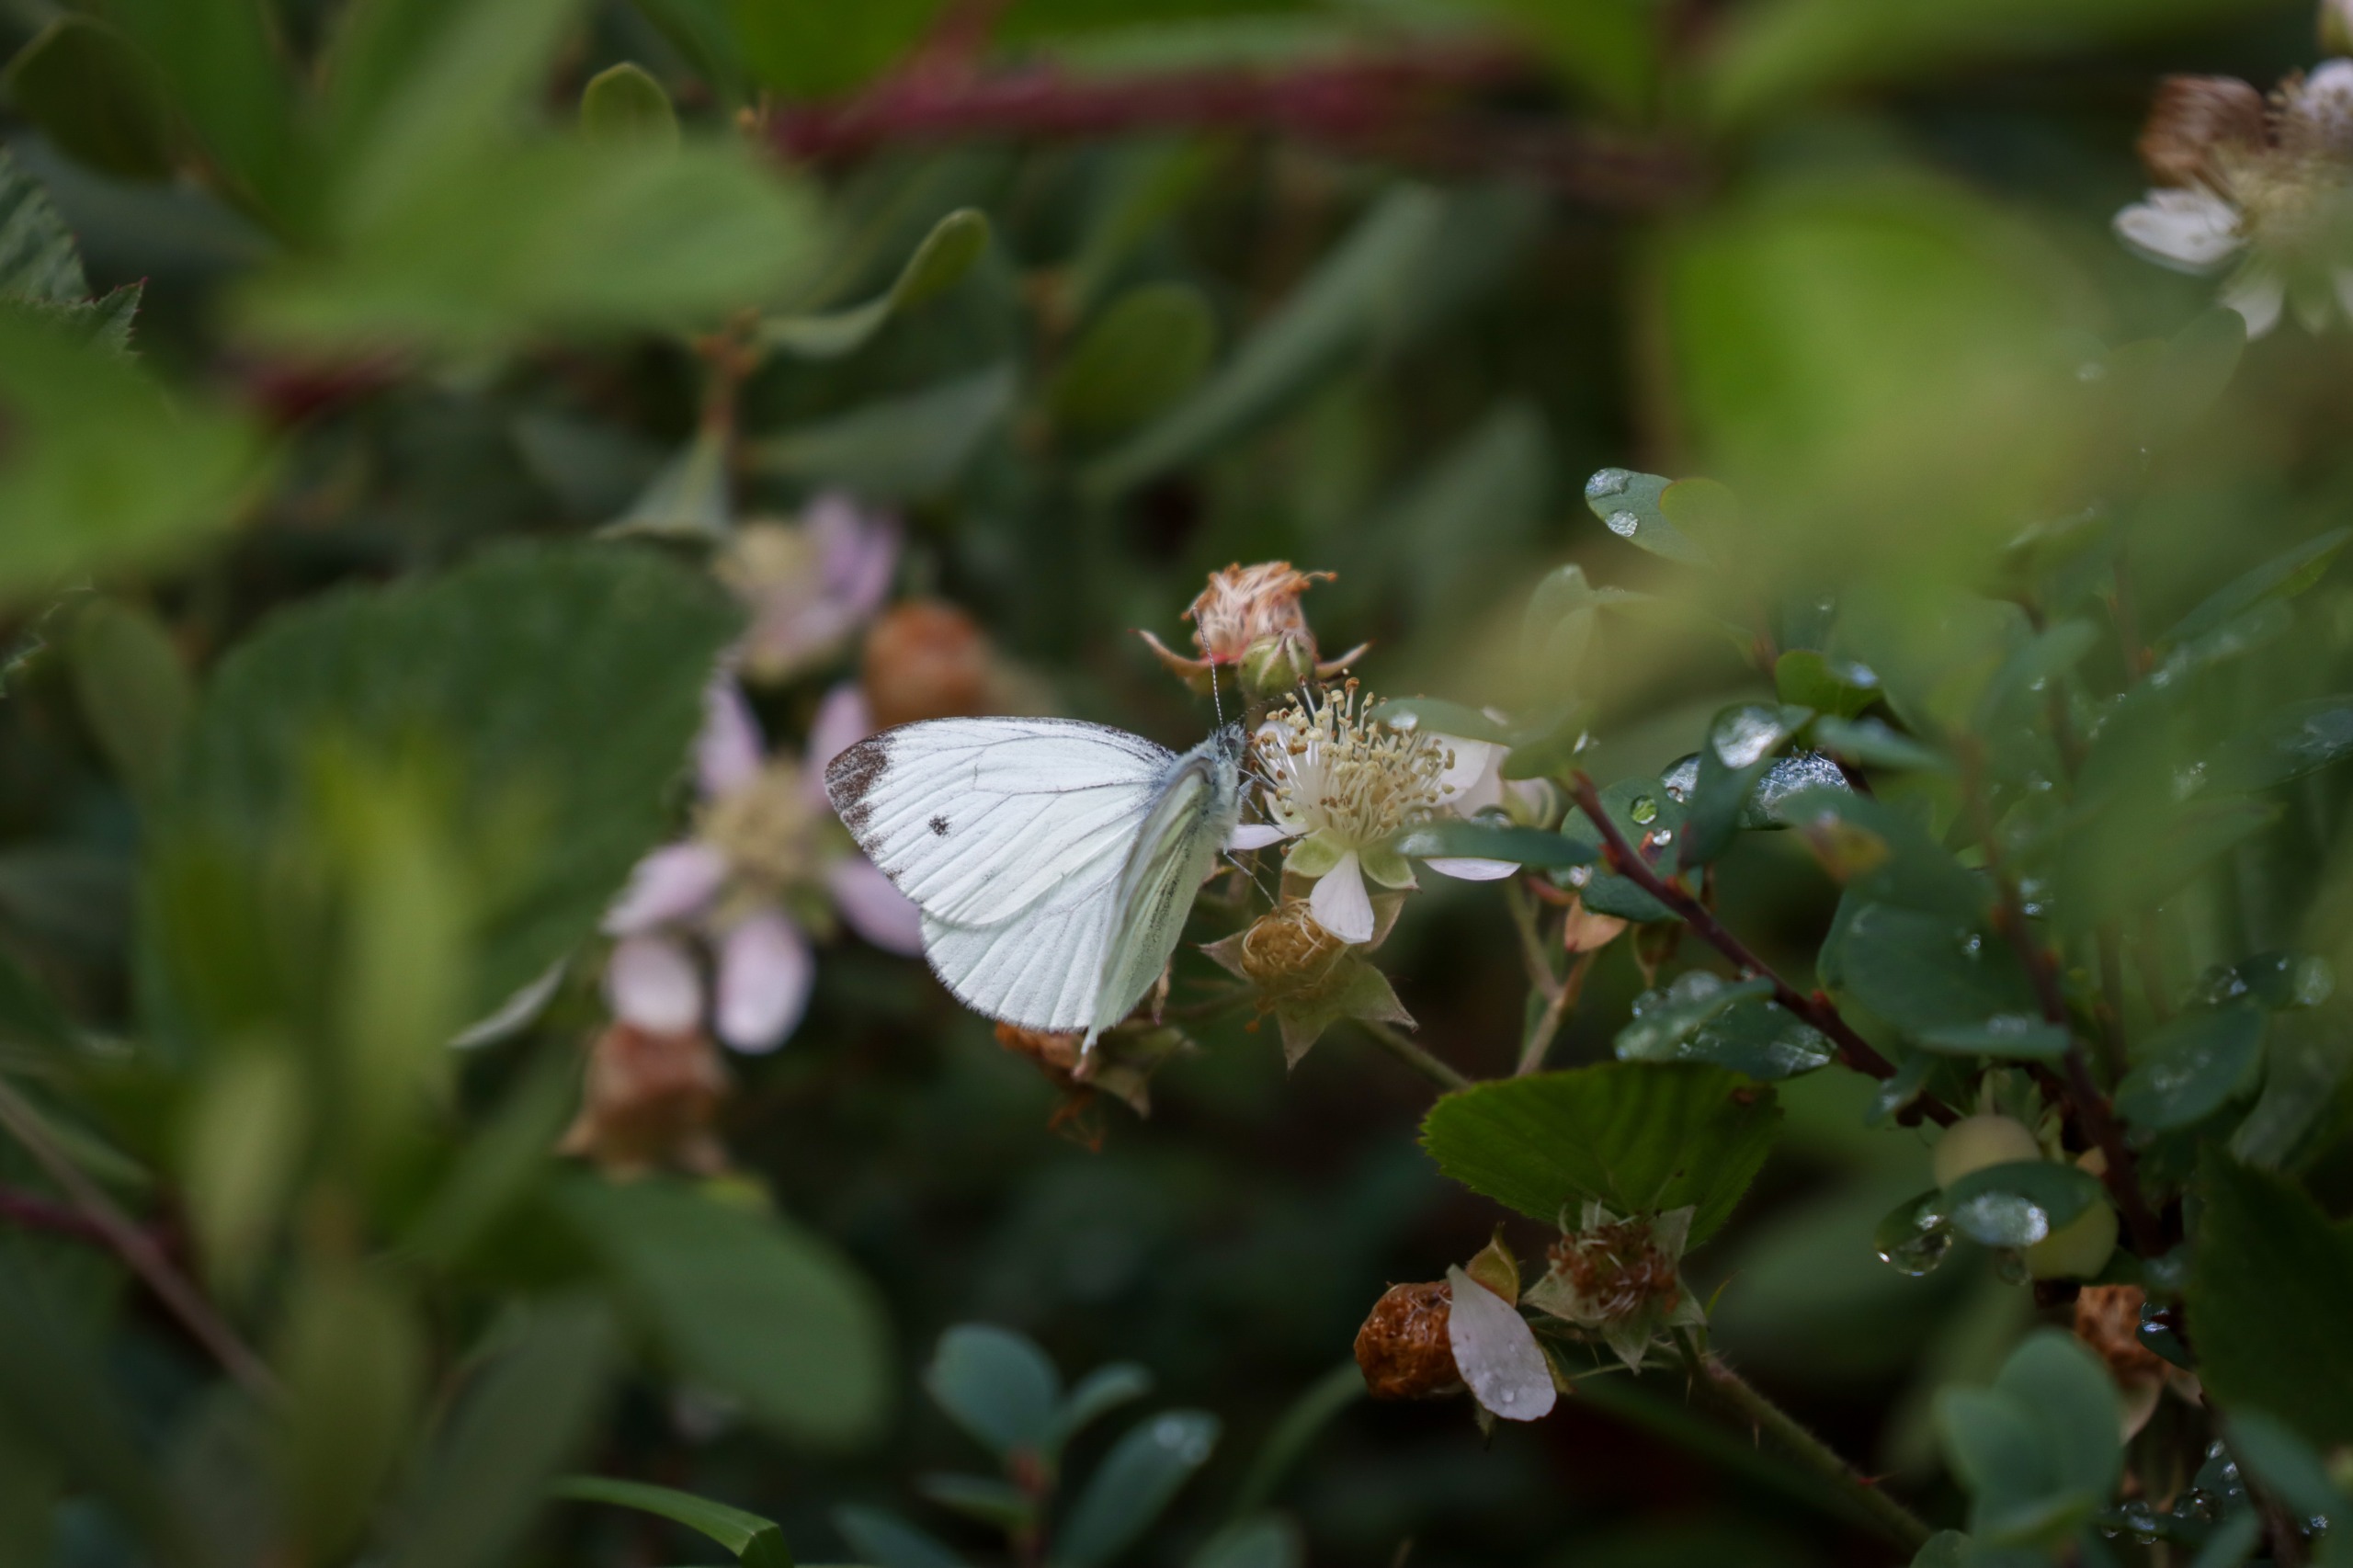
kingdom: Animalia
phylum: Arthropoda
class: Insecta
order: Lepidoptera
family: Pieridae
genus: Pieris
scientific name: Pieris napi
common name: Grønåret kålsommerfugl
